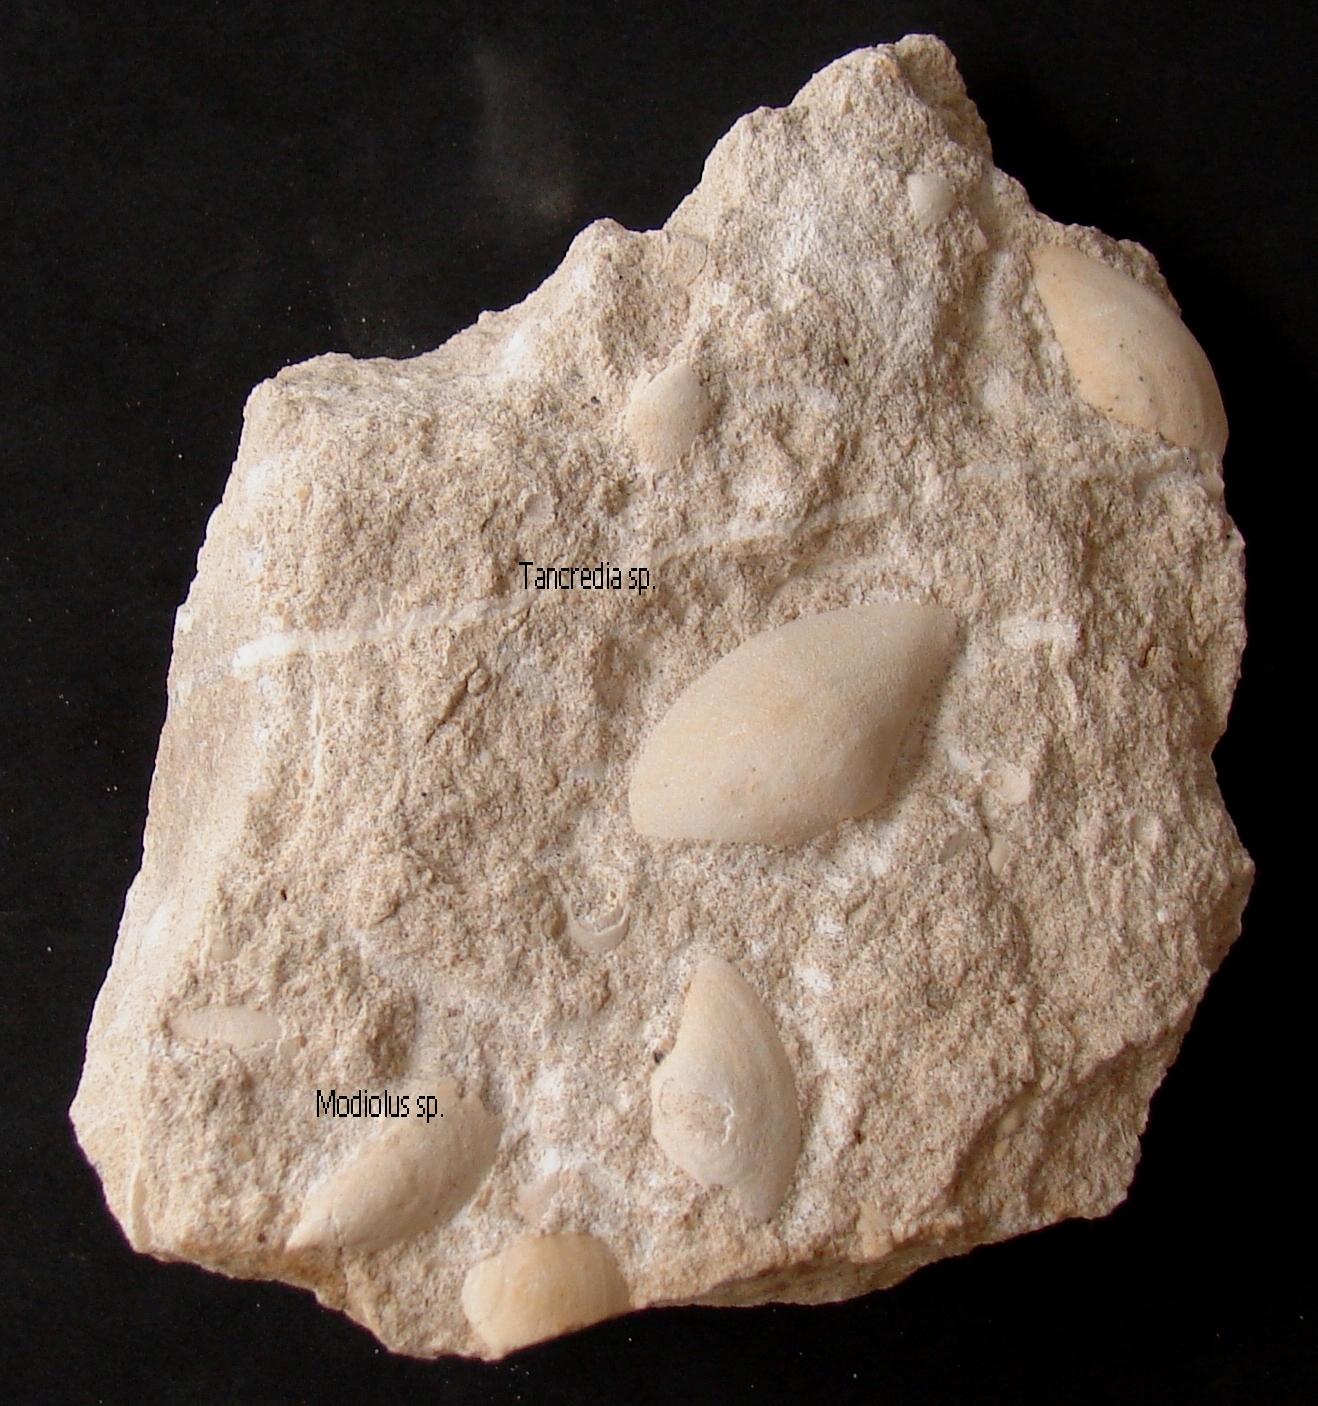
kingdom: Animalia
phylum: Mollusca
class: Bivalvia
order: Cardiida
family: Tancrediidae
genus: Tancredia
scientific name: Tancredia
